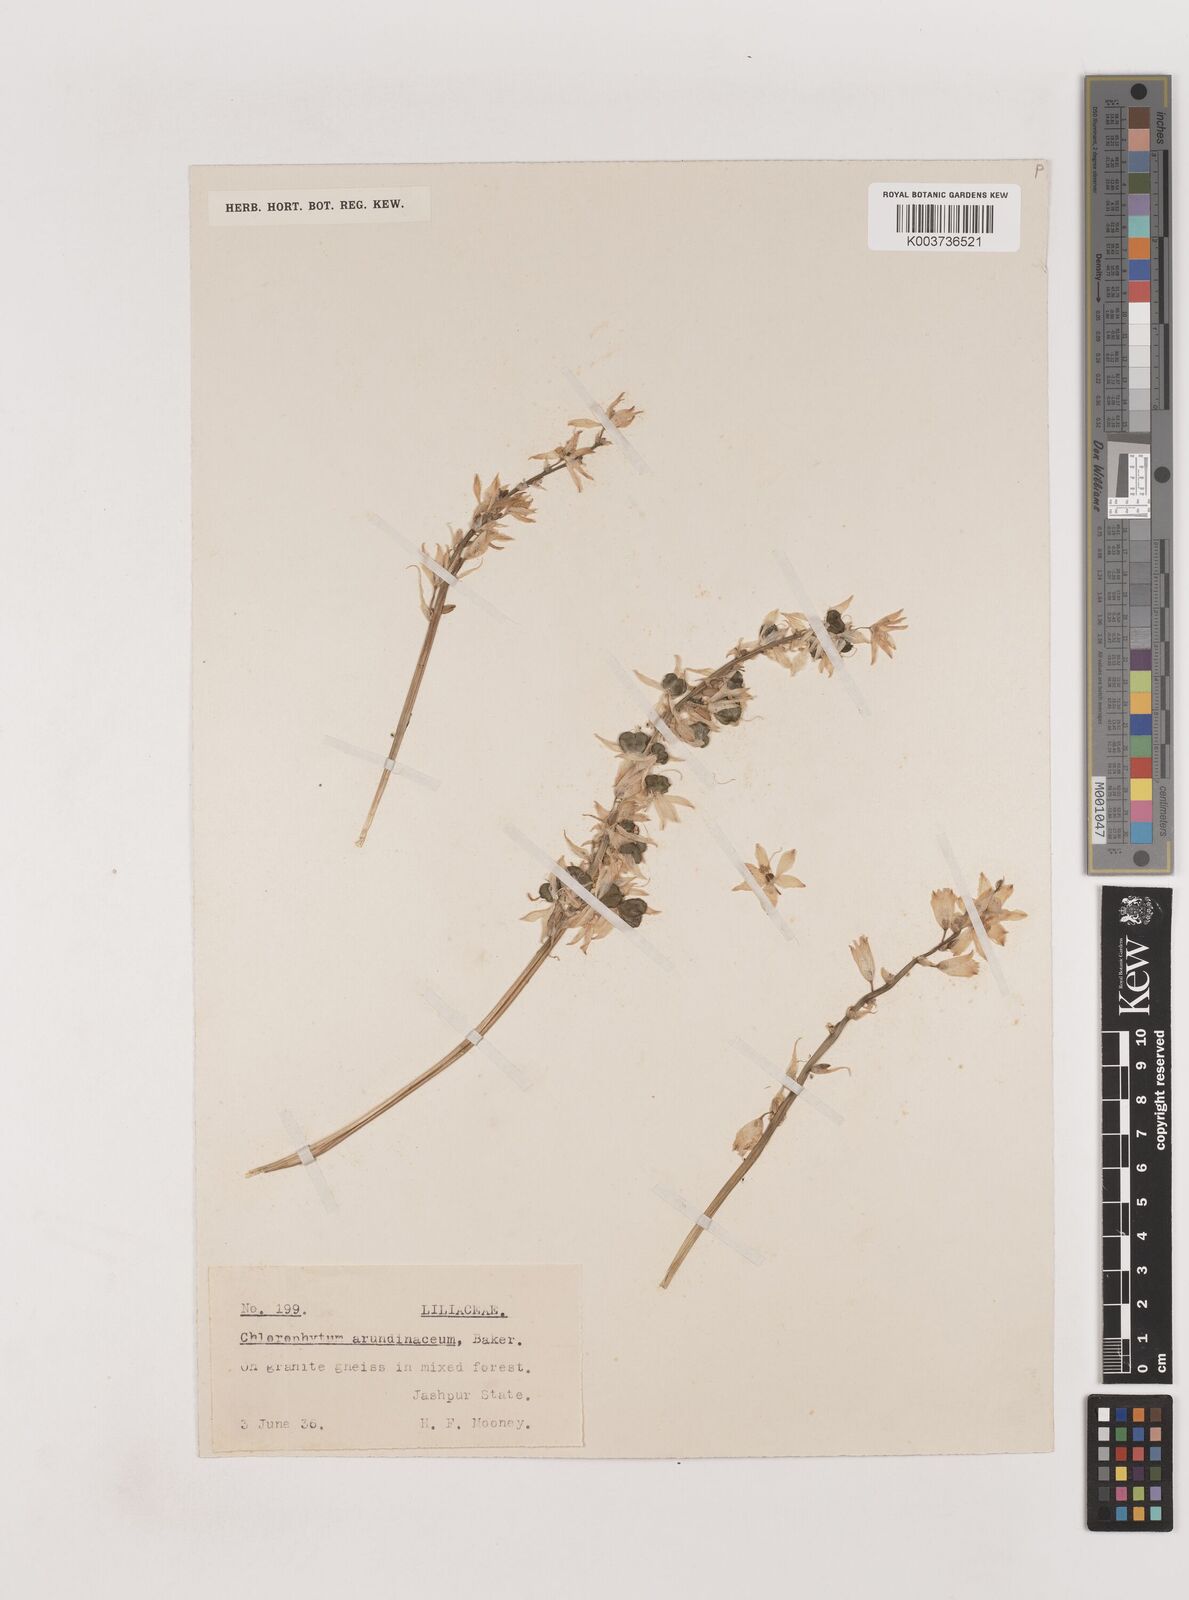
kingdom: Plantae
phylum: Tracheophyta
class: Liliopsida
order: Asparagales
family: Asparagaceae
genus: Chlorophytum
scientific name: Chlorophytum arundinaceum
